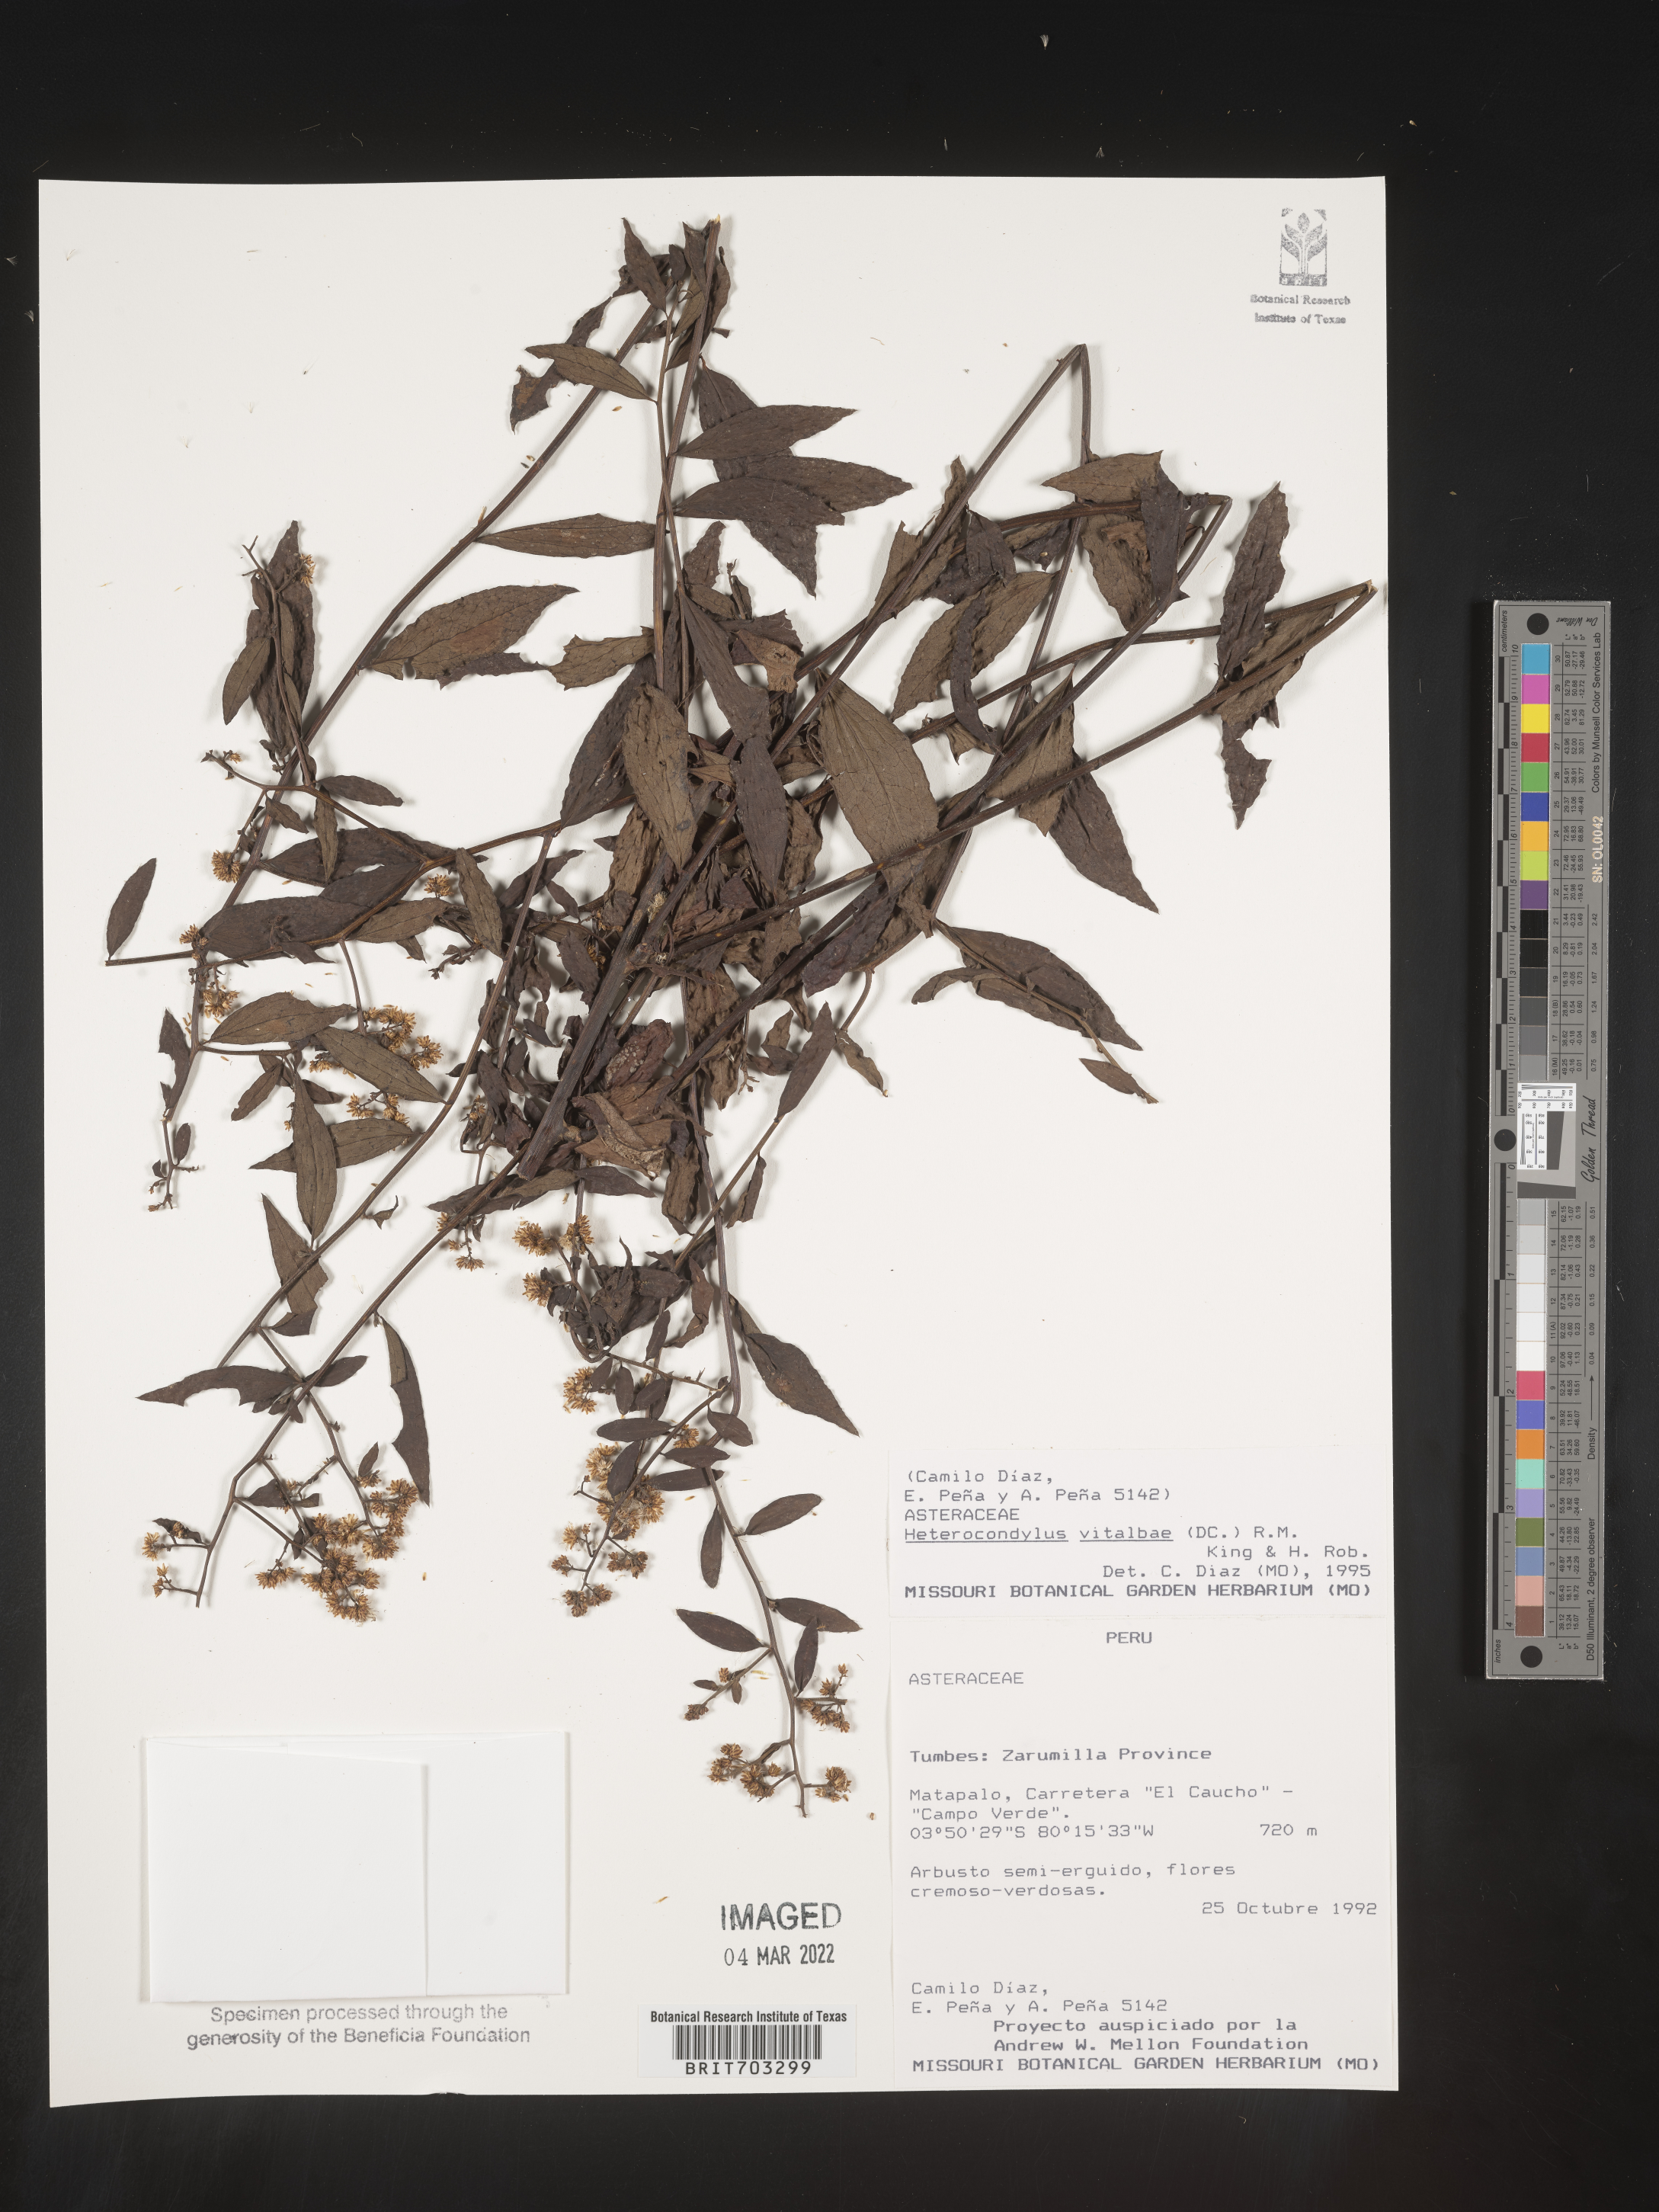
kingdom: Plantae
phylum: Tracheophyta
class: Magnoliopsida
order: Asterales
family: Asteraceae
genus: Eupatorium
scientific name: Eupatorium
